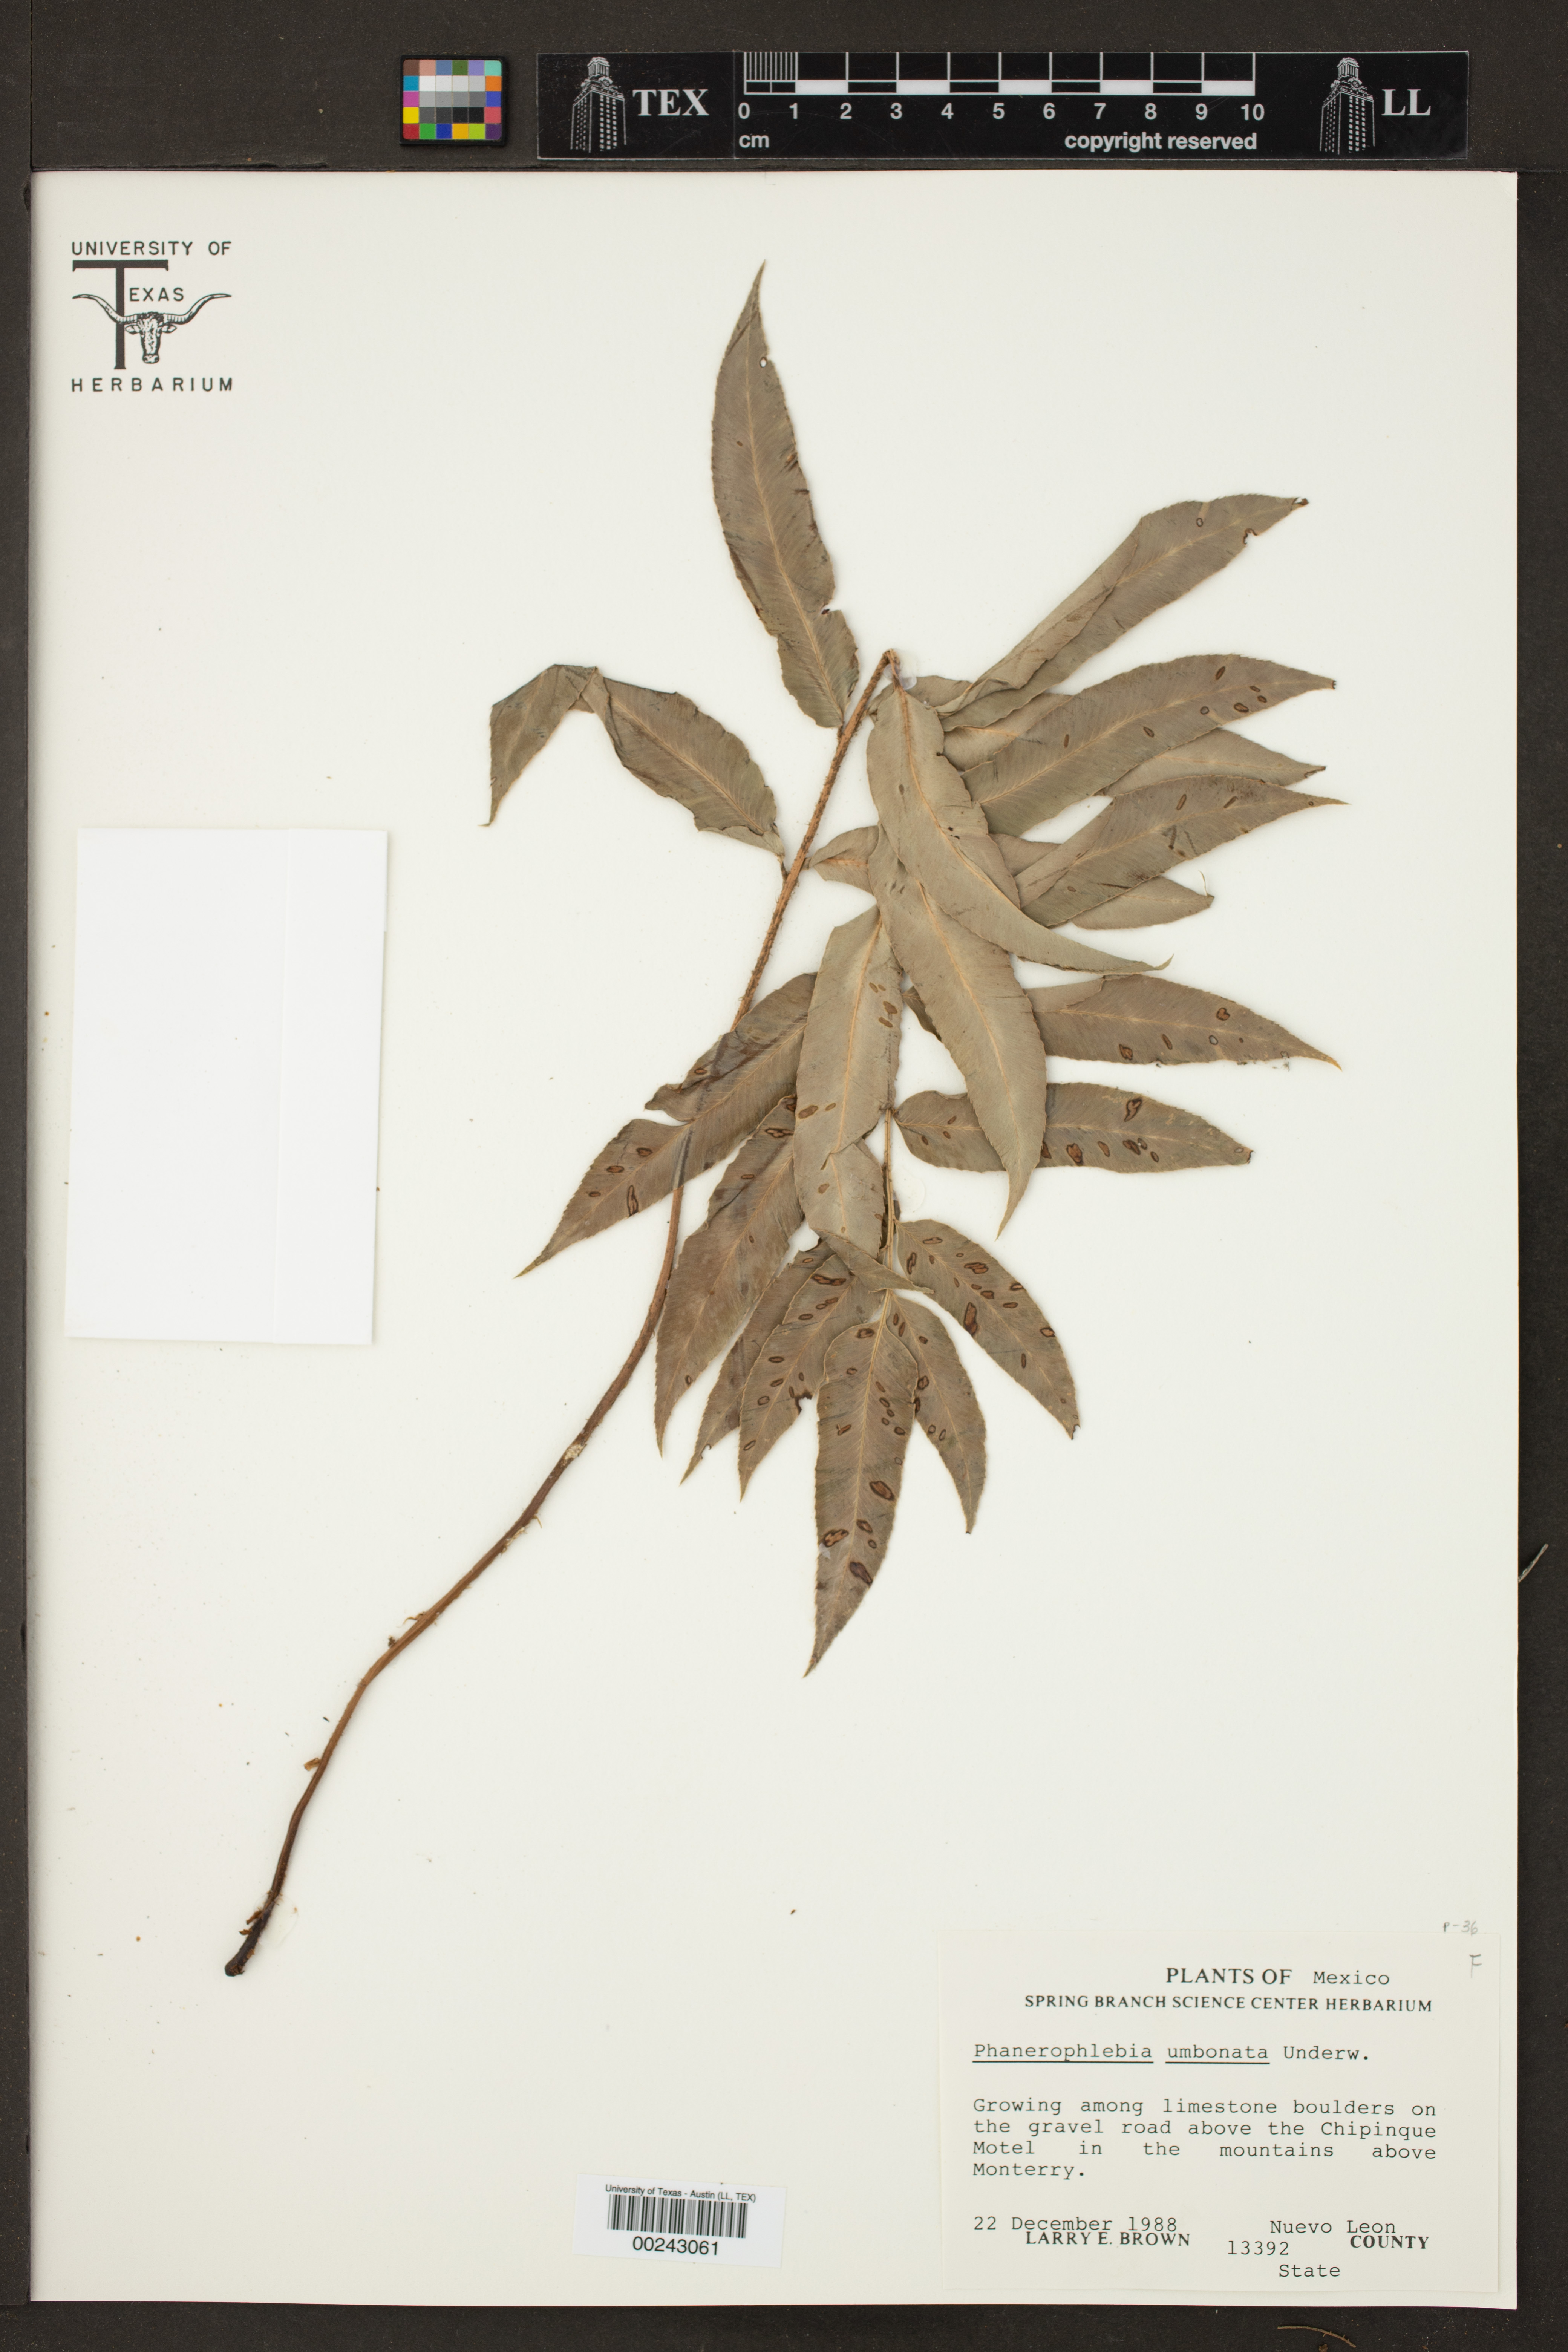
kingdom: Plantae
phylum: Tracheophyta
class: Polypodiopsida
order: Polypodiales
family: Dryopteridaceae
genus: Phanerophlebia
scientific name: Phanerophlebia umbonata
